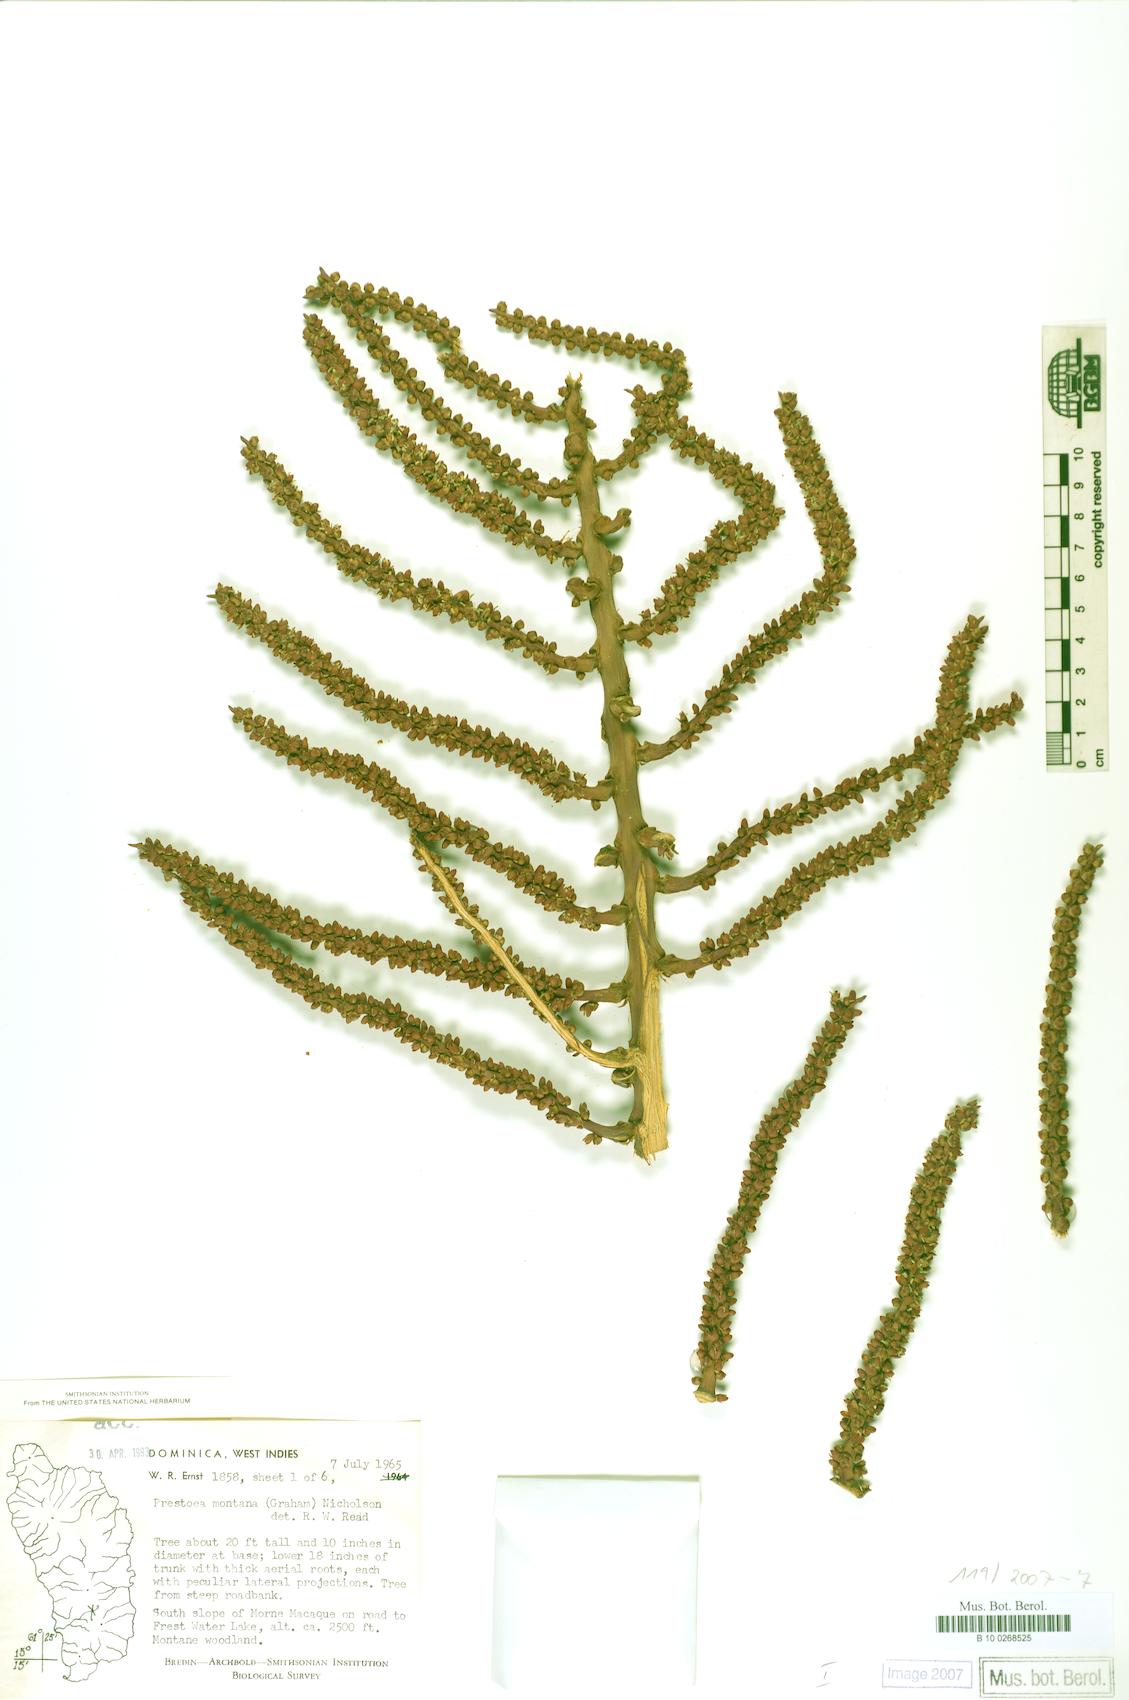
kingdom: Plantae
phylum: Tracheophyta
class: Liliopsida
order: Arecales
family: Arecaceae
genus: Prestoea
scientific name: Prestoea acuminata
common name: Sierran palm
